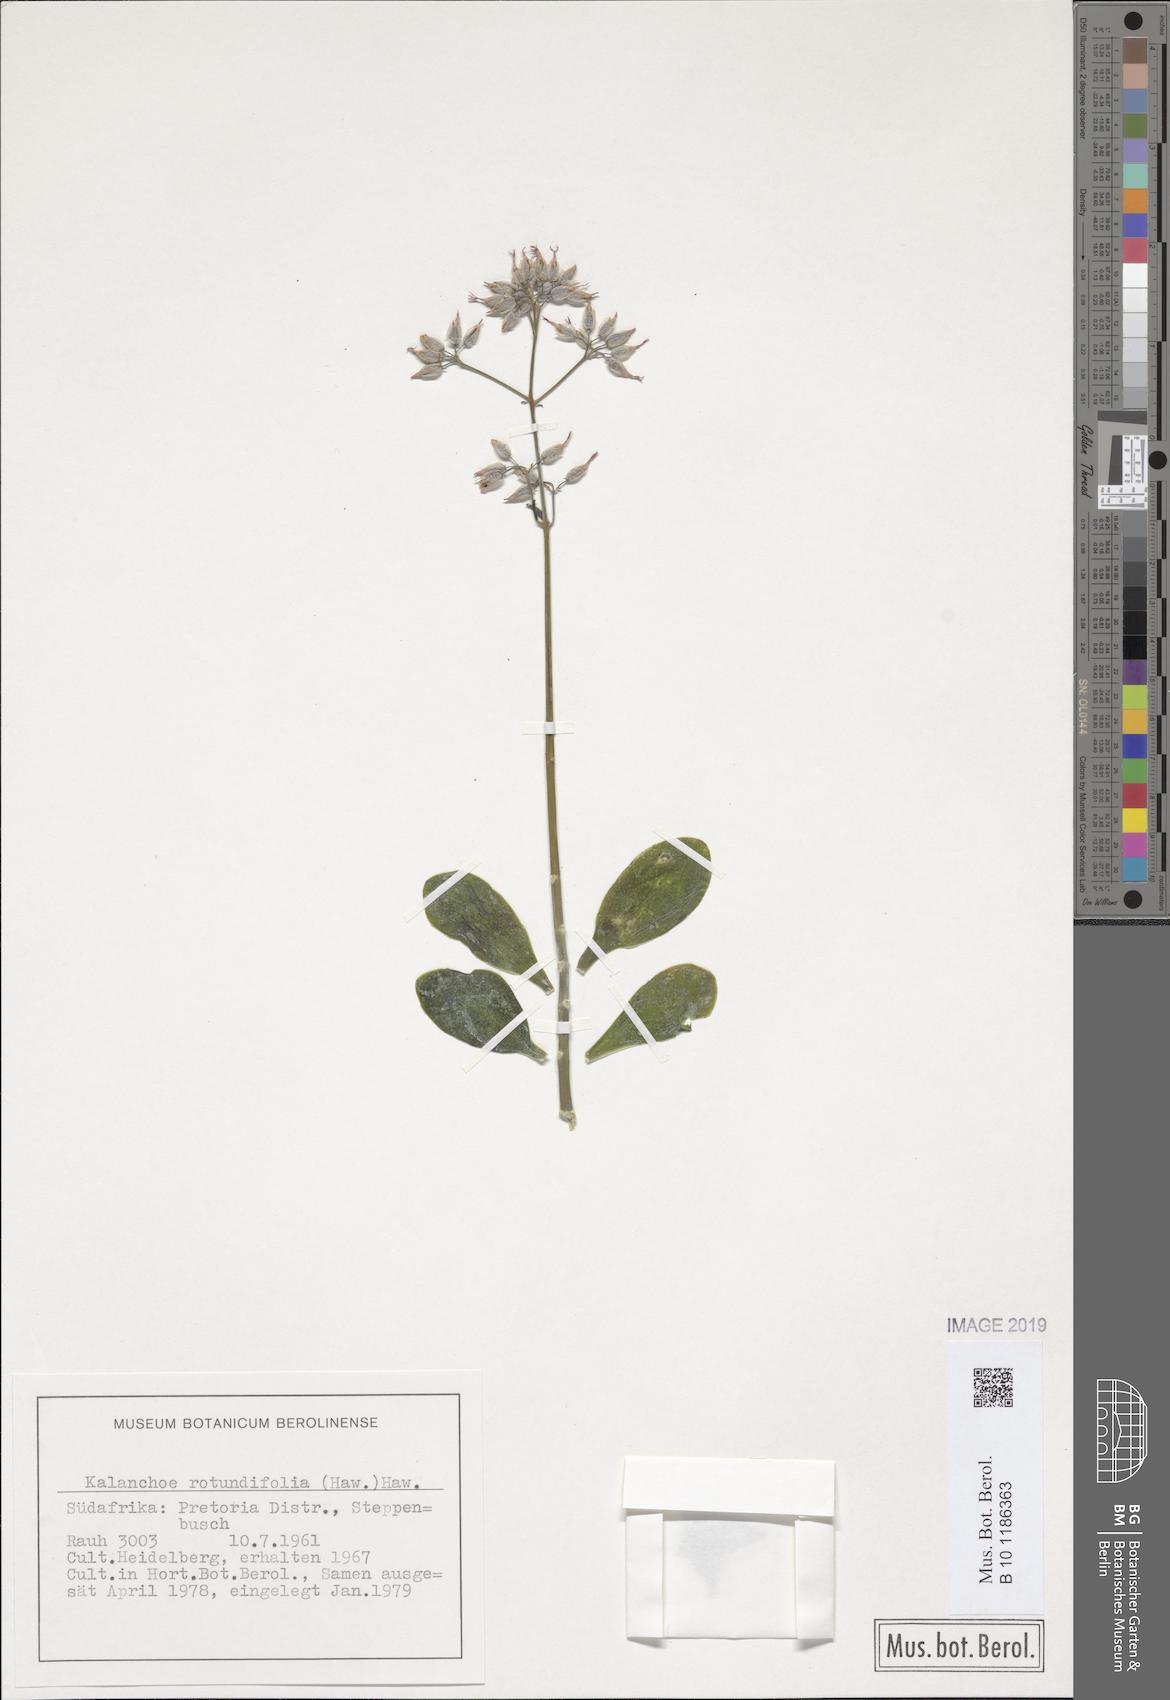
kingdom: Plantae
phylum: Tracheophyta
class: Magnoliopsida
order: Saxifragales
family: Crassulaceae
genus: Kalanchoe
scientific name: Kalanchoe rotundifolia
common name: Common kalanchoe
